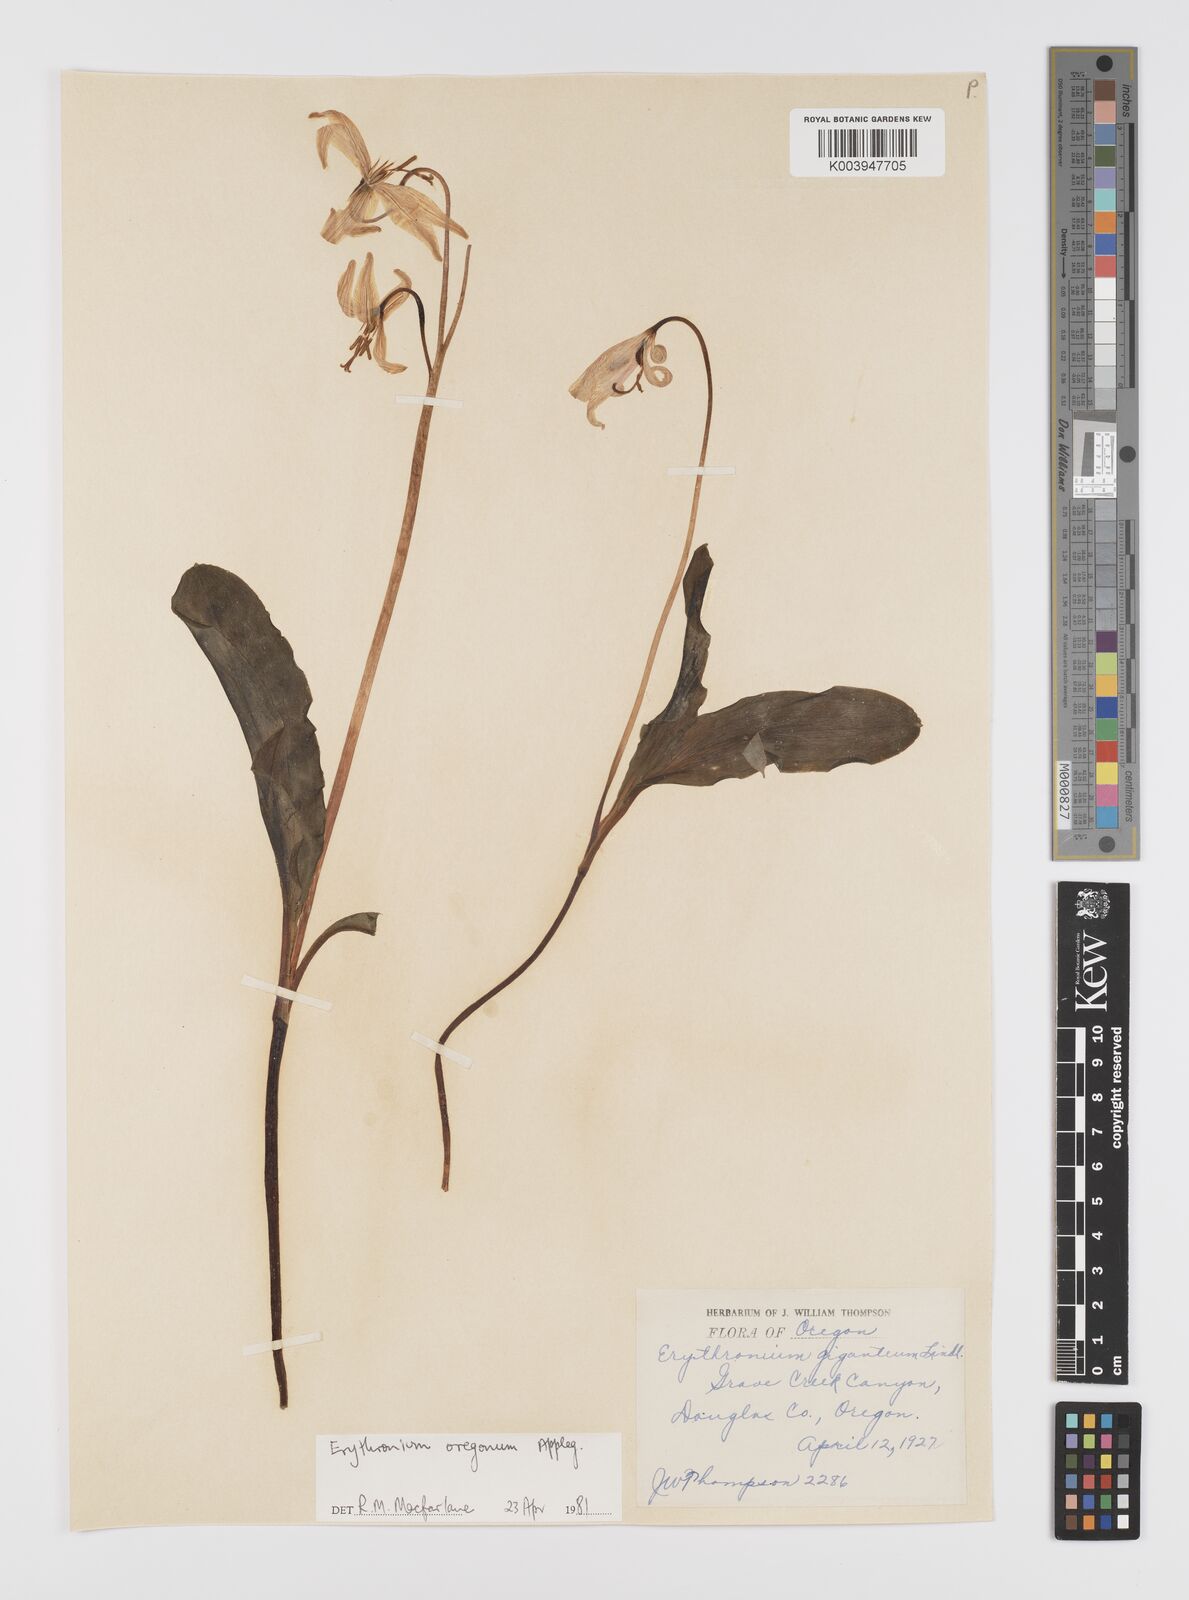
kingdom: Plantae
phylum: Tracheophyta
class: Liliopsida
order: Liliales
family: Liliaceae
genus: Erythronium
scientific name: Erythronium oregonum
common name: Giant adder's-tongue
